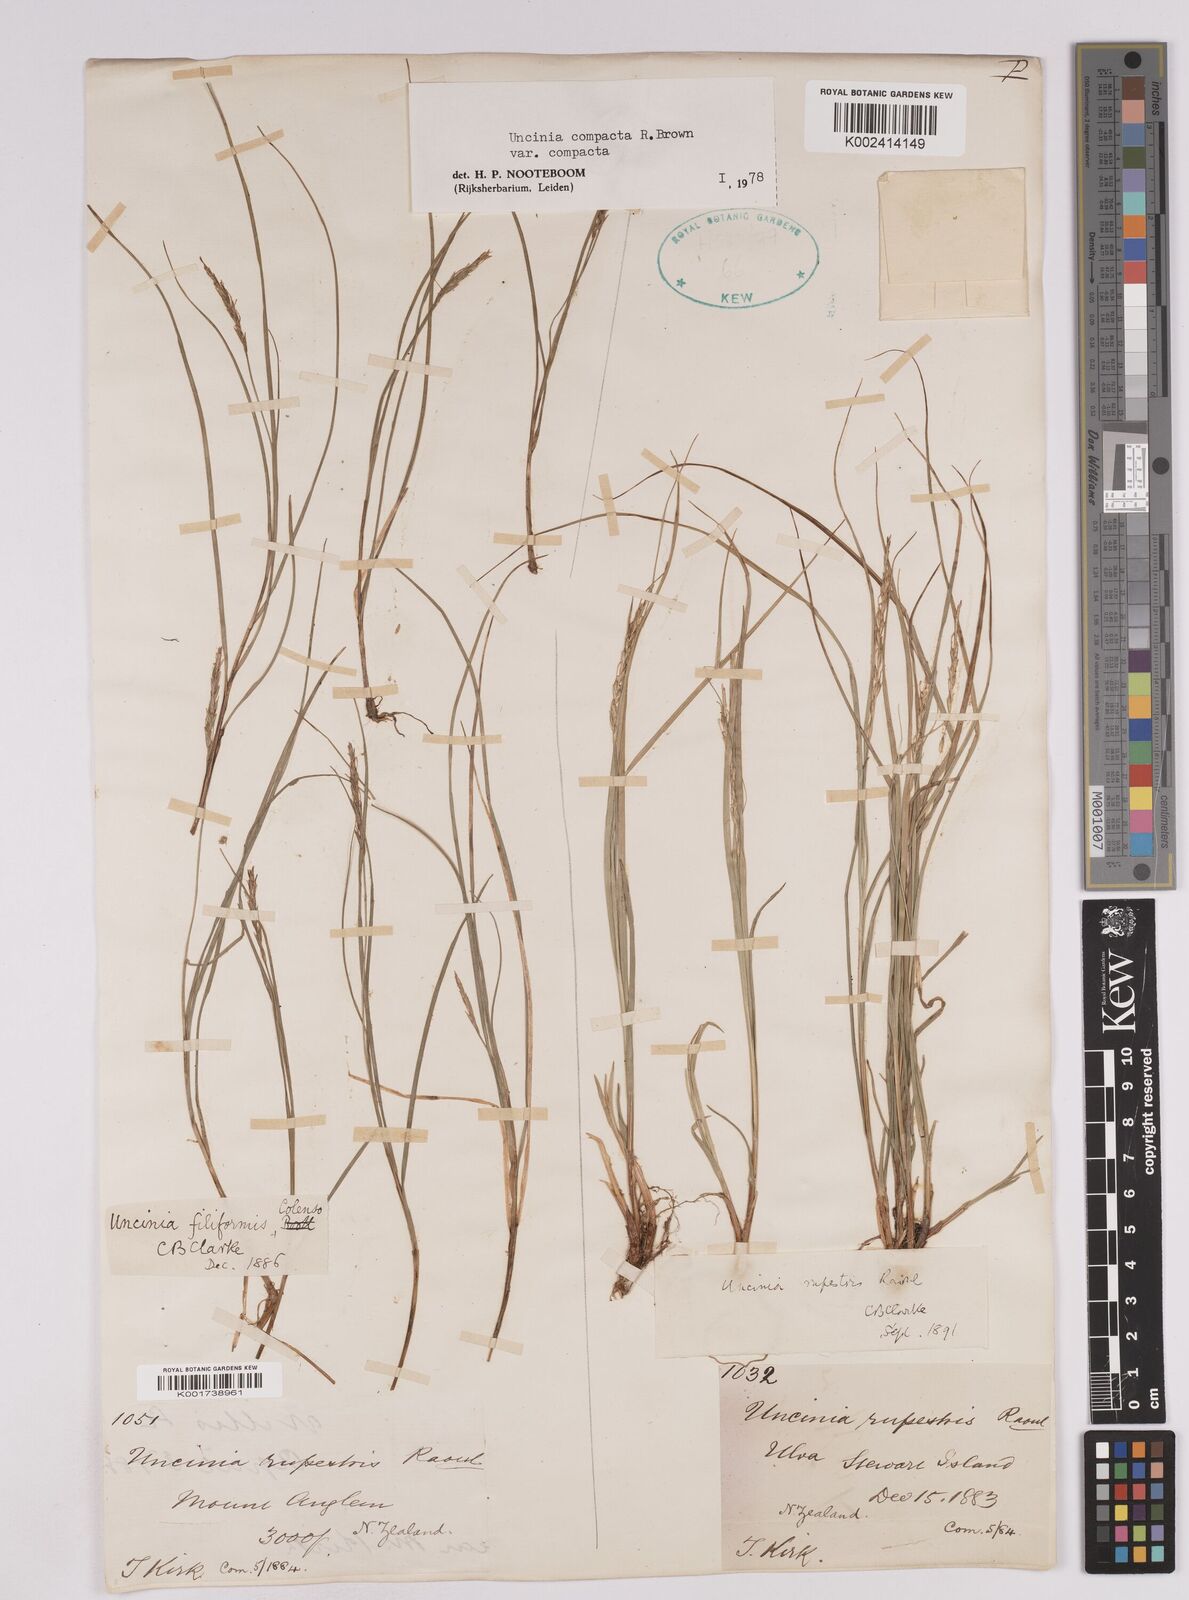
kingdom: Plantae
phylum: Tracheophyta
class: Liliopsida
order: Poales
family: Cyperaceae
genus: Carex
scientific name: Carex austrocompacta
